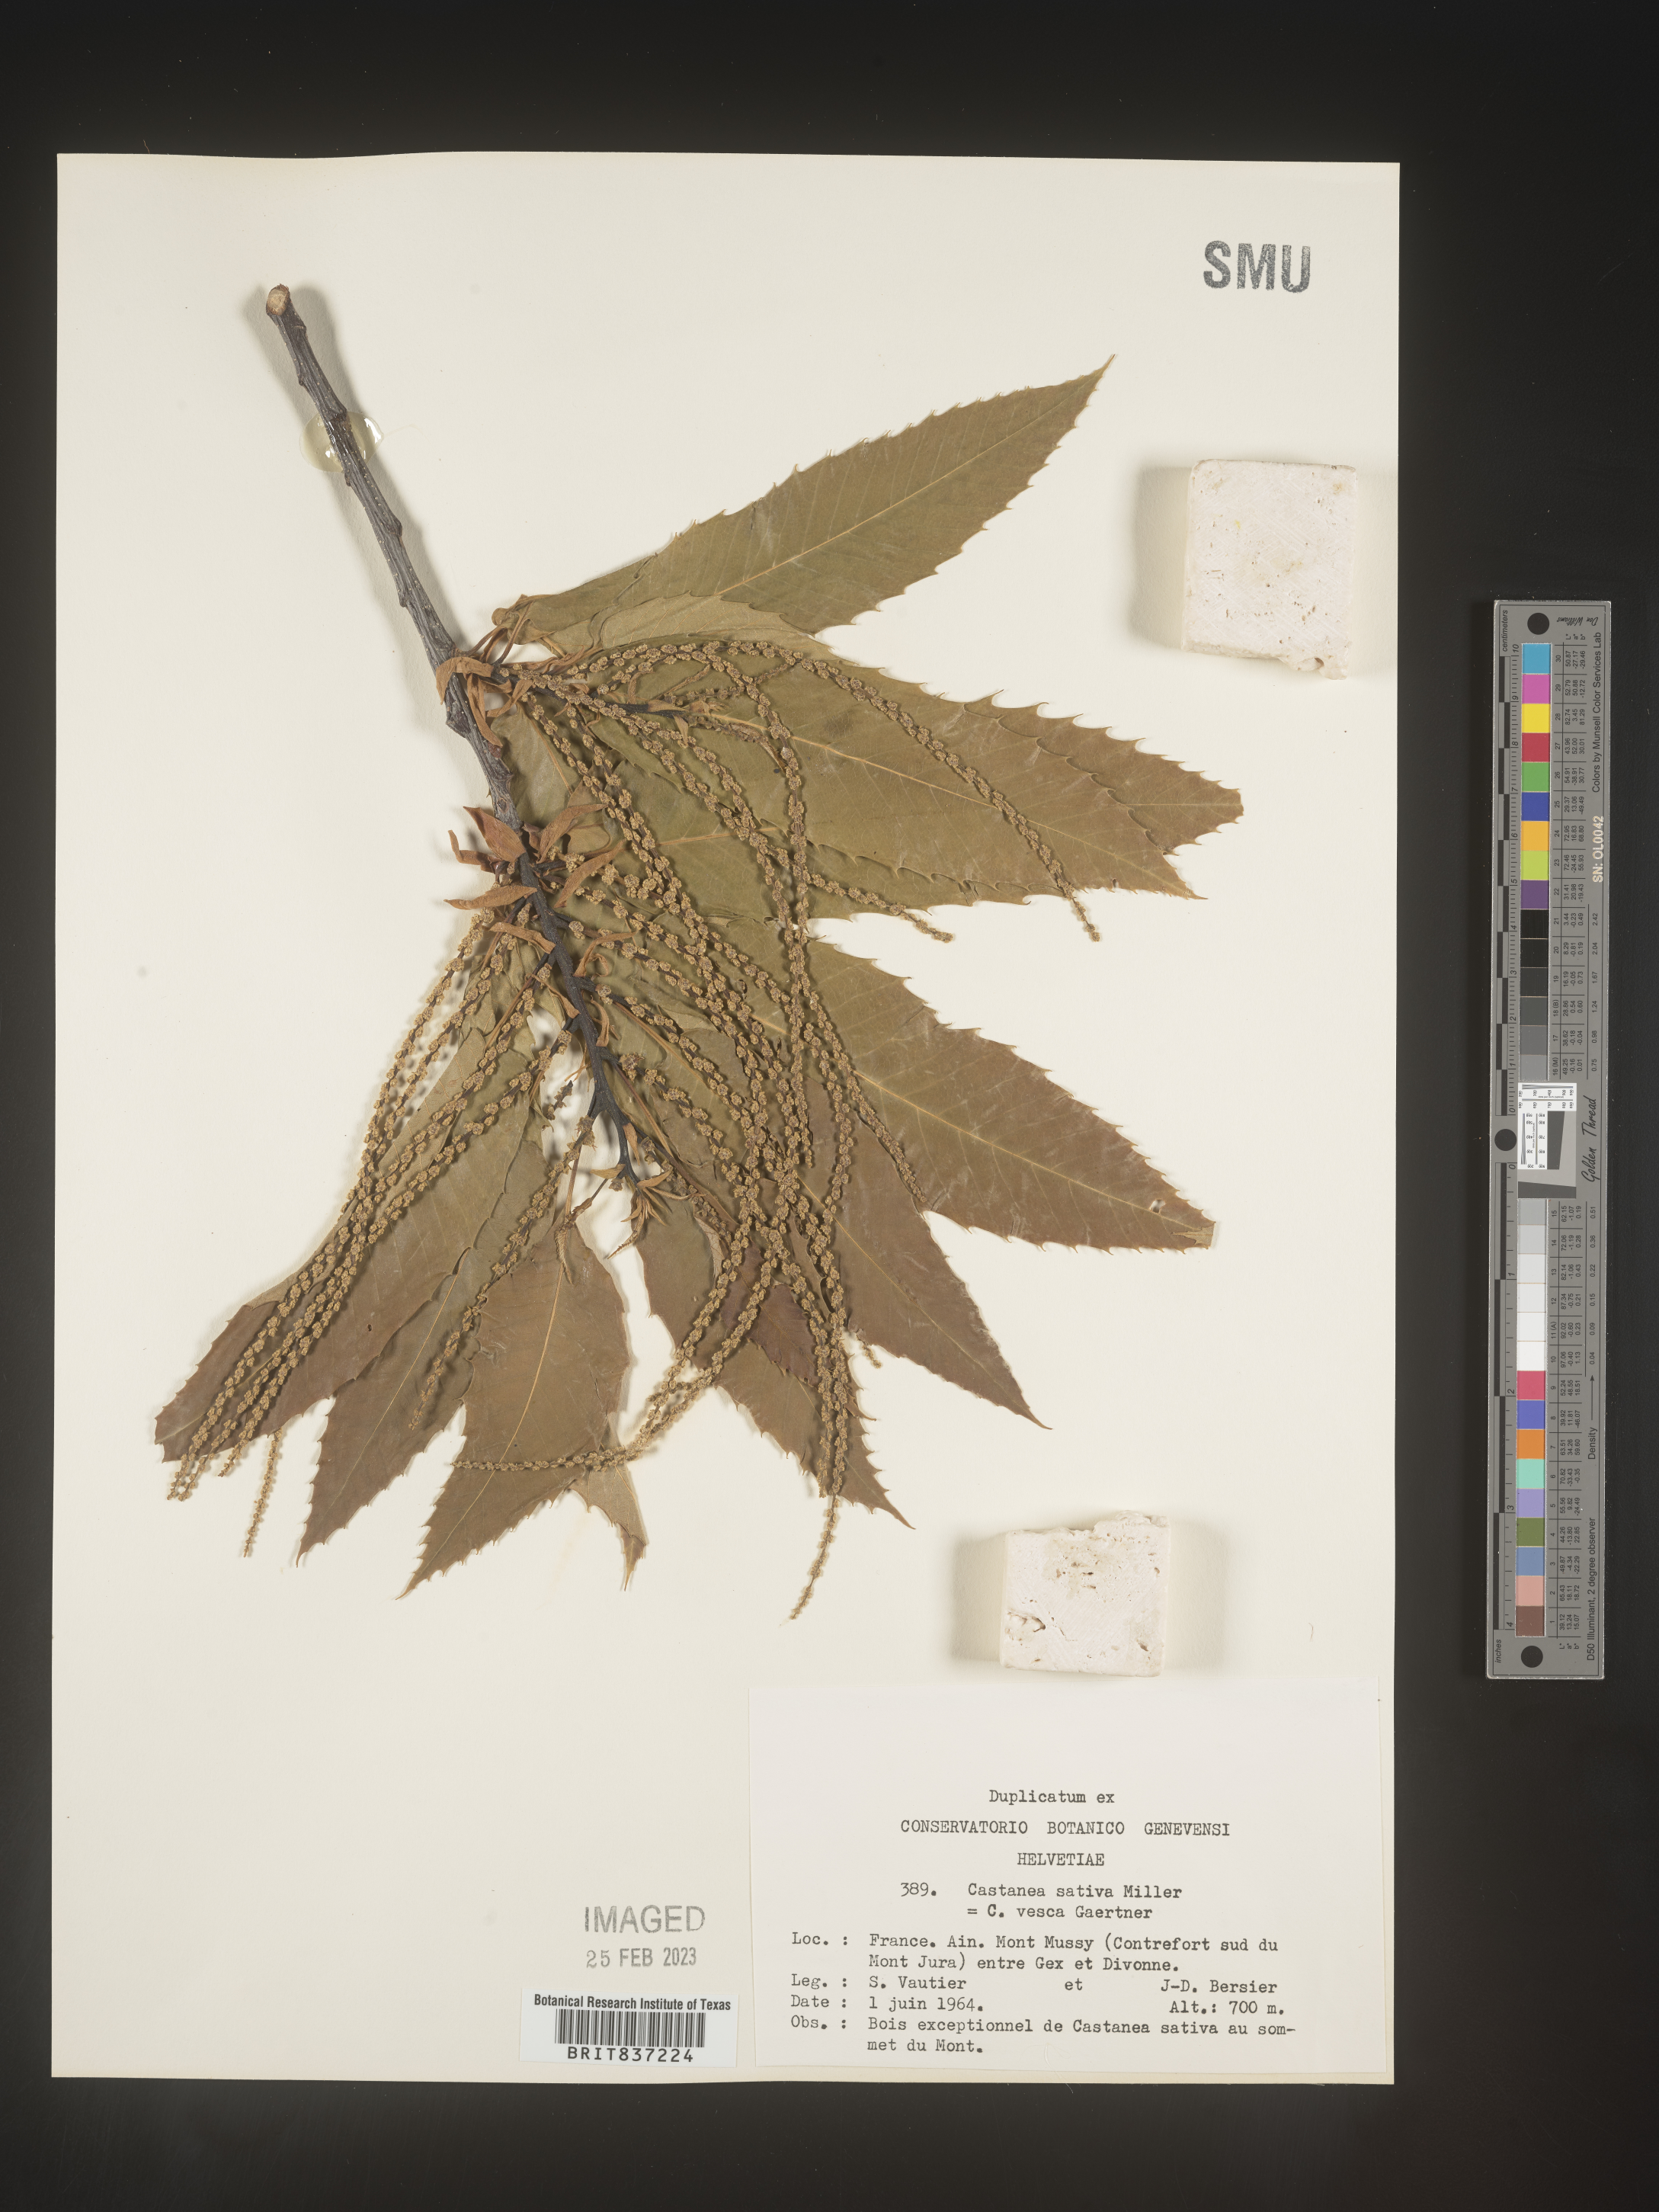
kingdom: Plantae
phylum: Tracheophyta
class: Magnoliopsida
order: Fagales
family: Fagaceae
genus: Castanea
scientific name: Castanea
